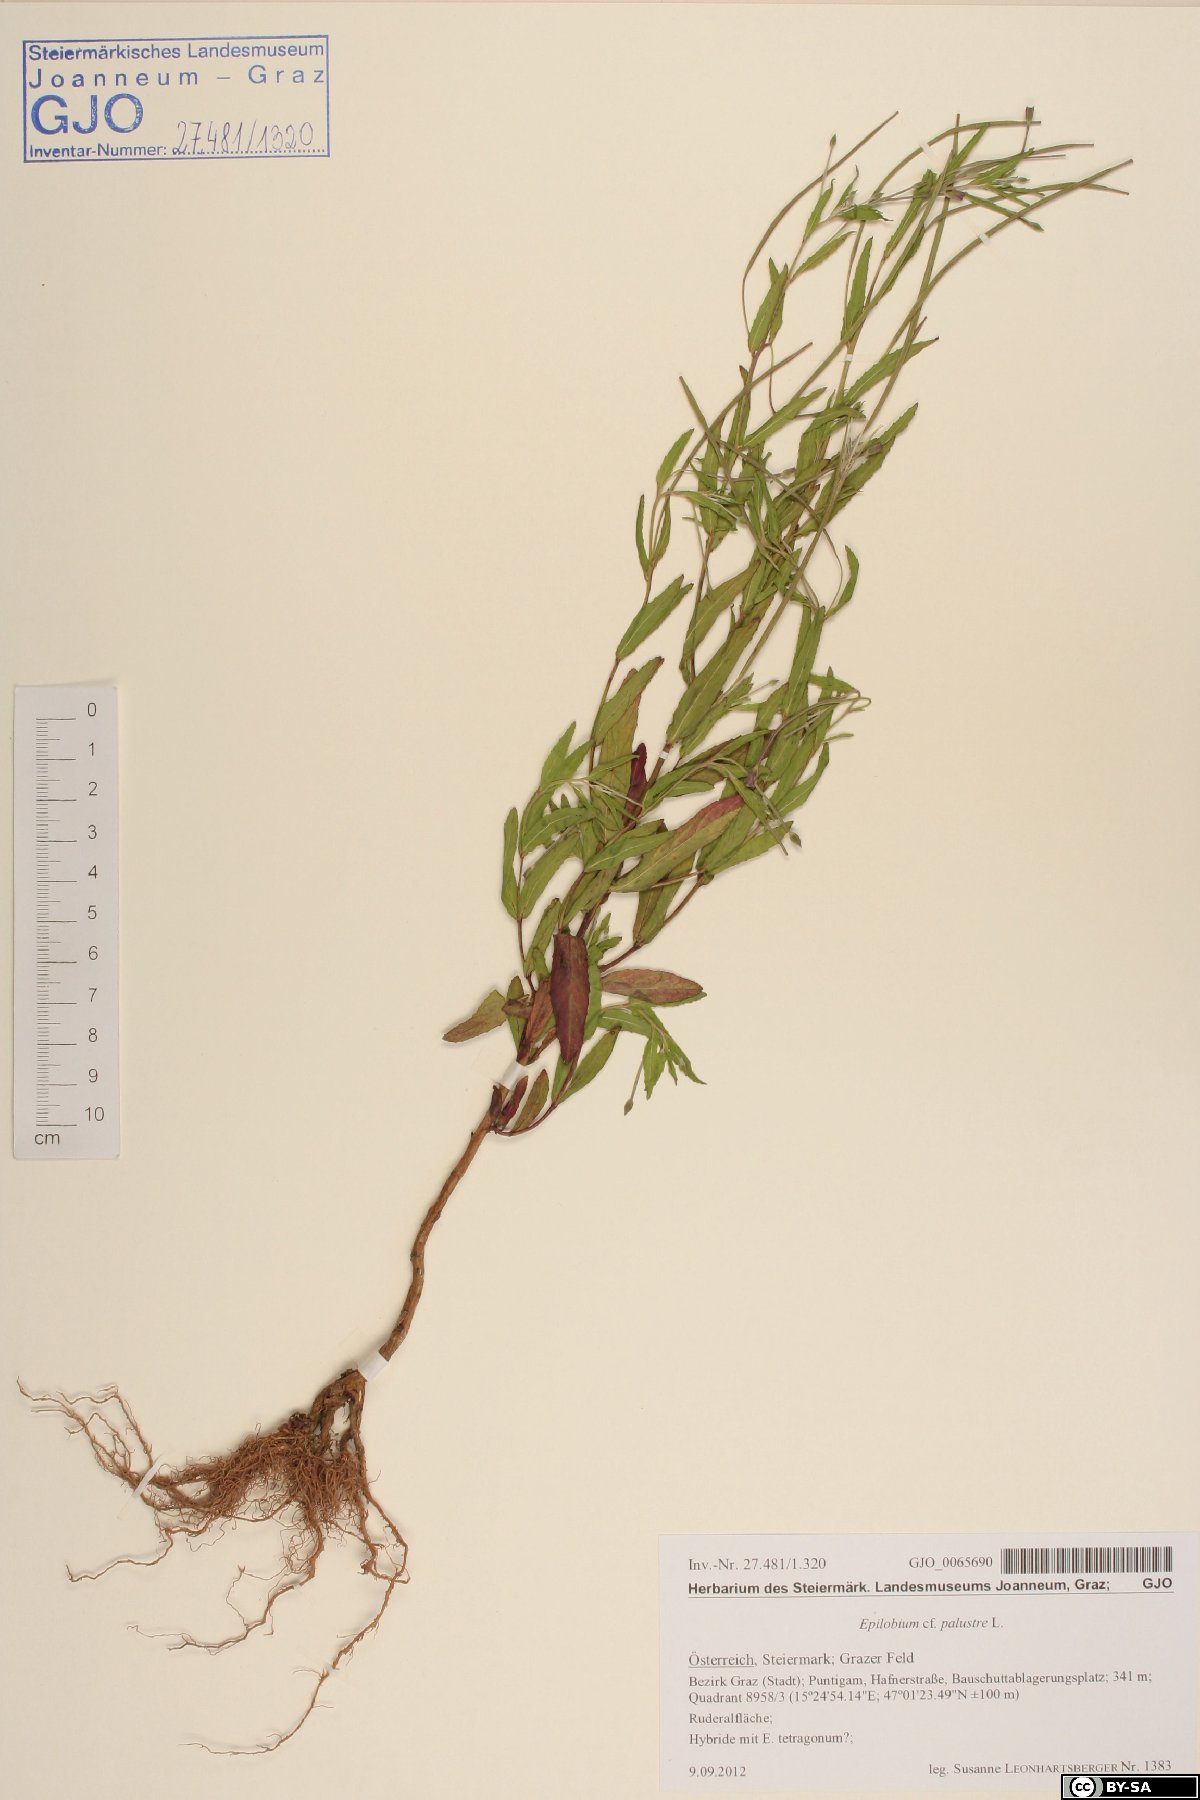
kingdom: Plantae
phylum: Tracheophyta
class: Magnoliopsida
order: Myrtales
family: Onagraceae
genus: Epilobium
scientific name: Epilobium palustre
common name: Marsh willowherb
